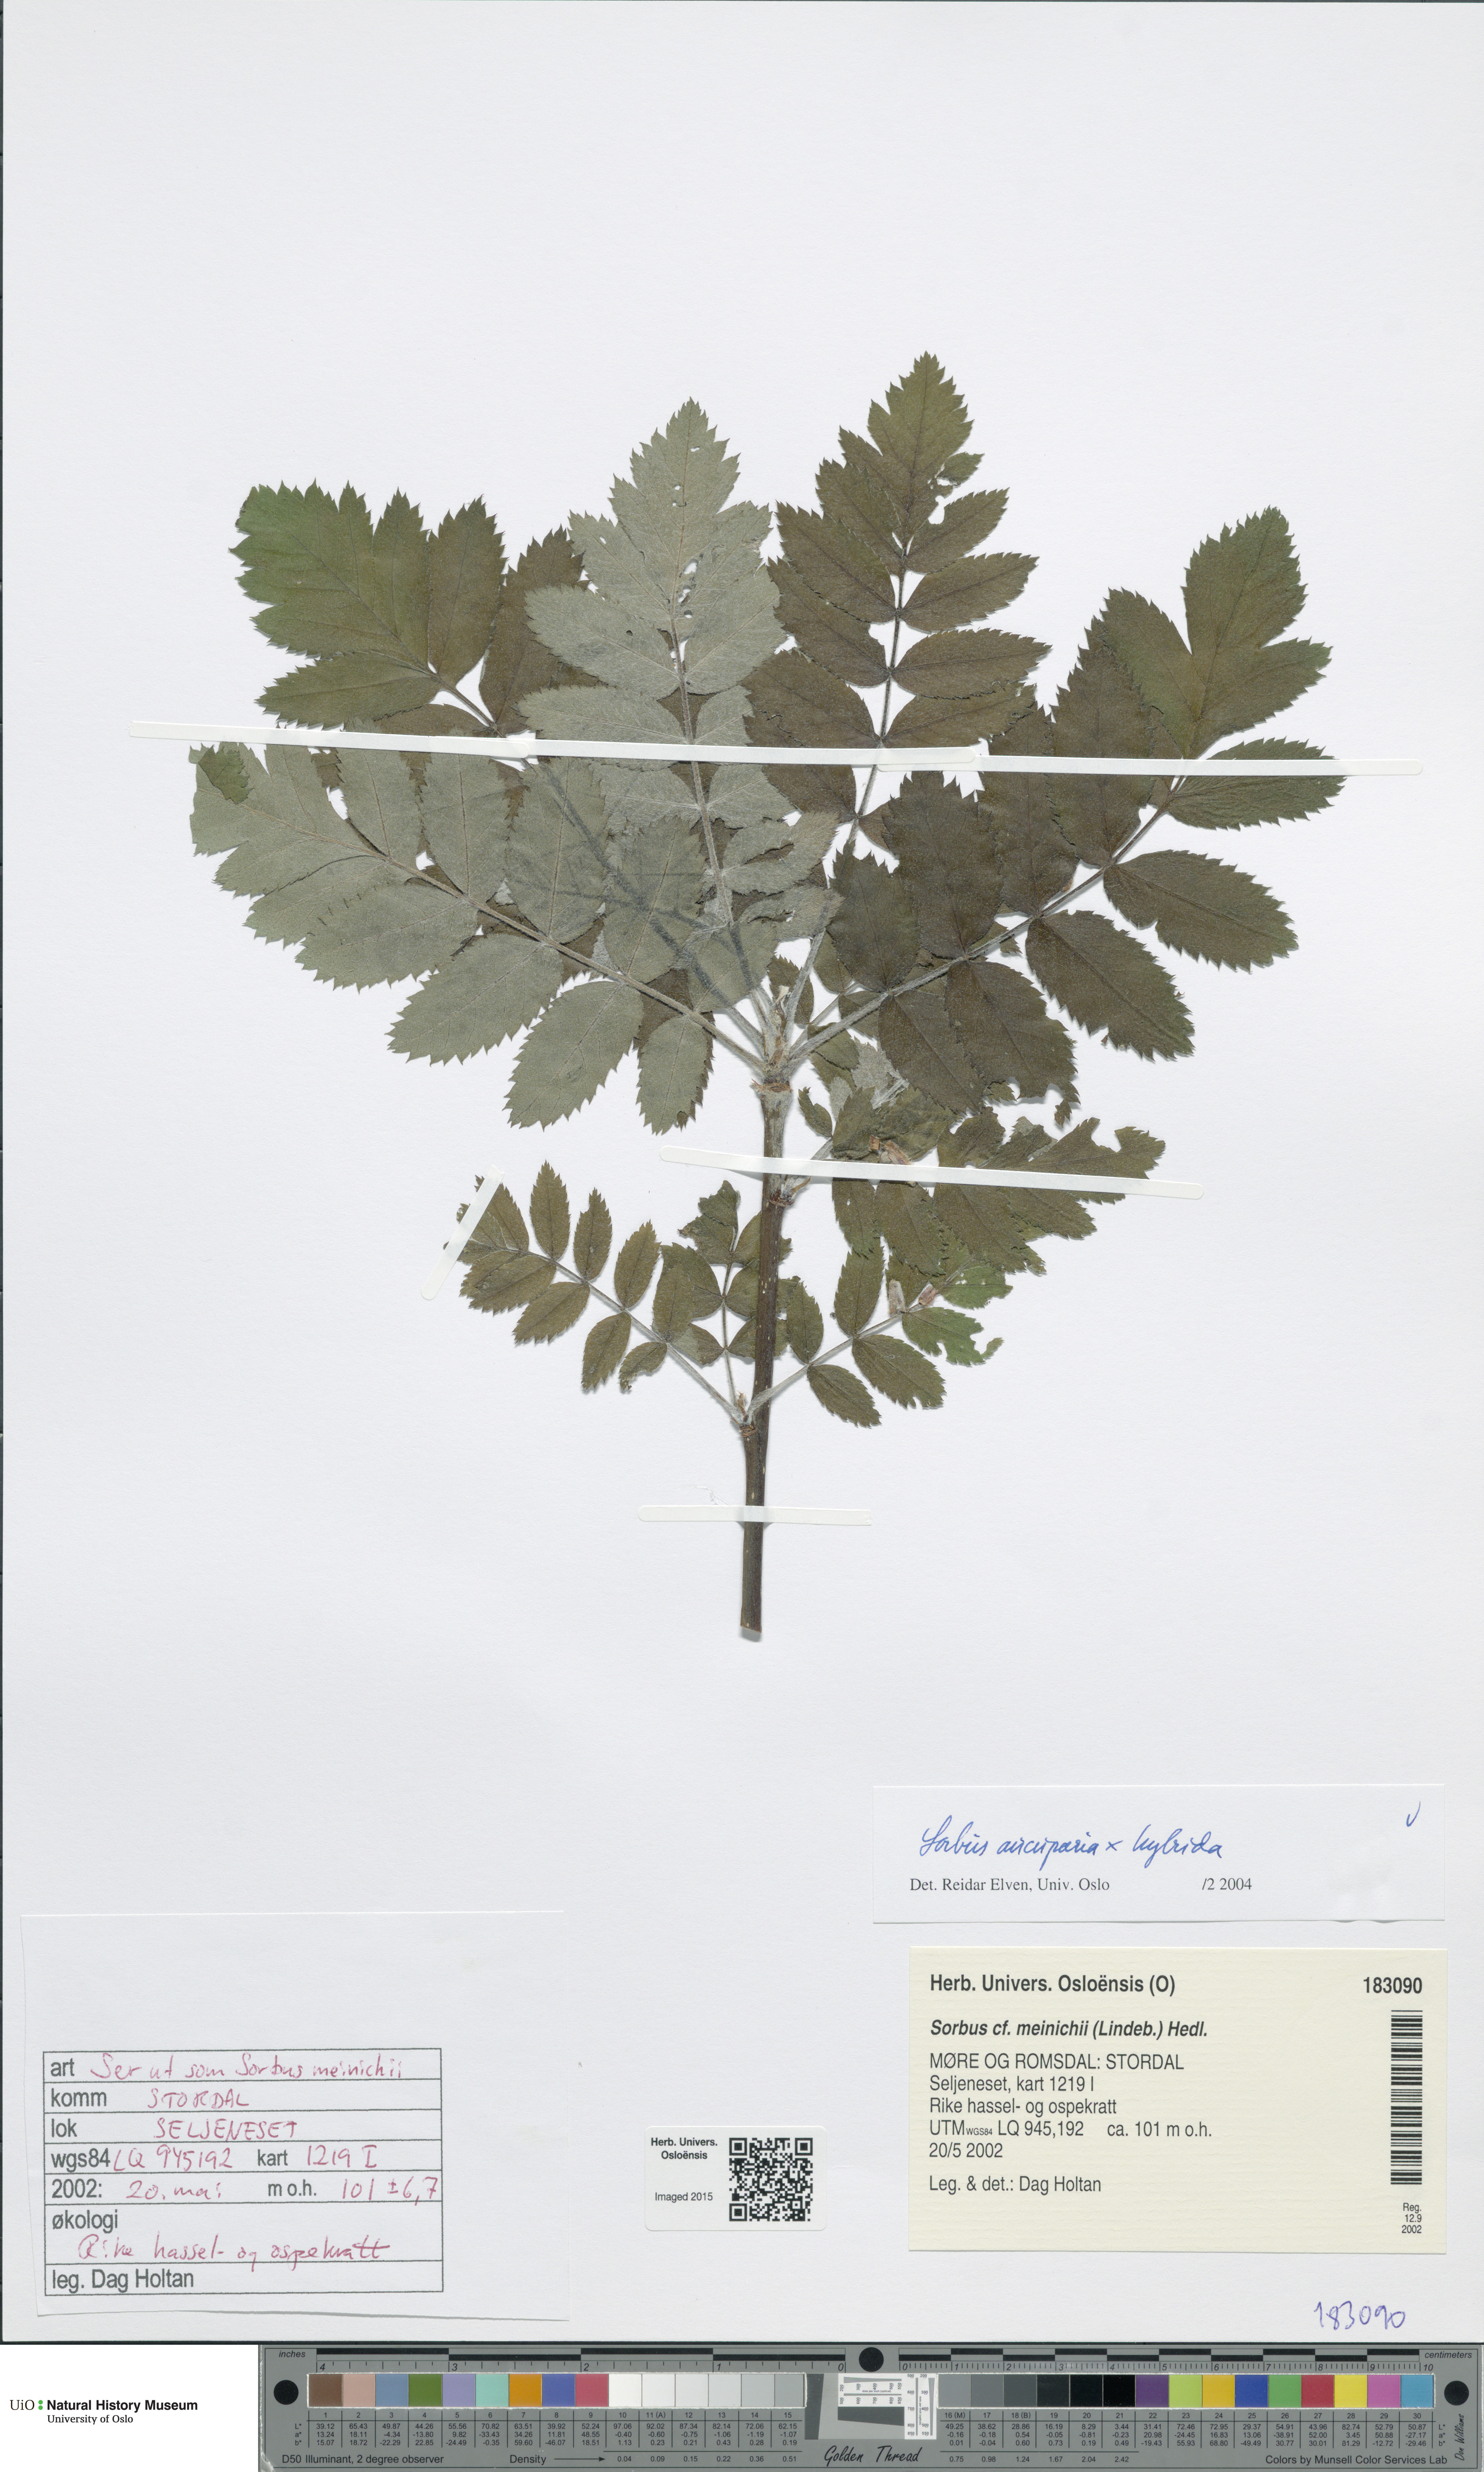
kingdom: Plantae
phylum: Tracheophyta
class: Magnoliopsida
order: Rosales
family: Rosaceae
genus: Hedlundia
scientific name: Hedlundia
